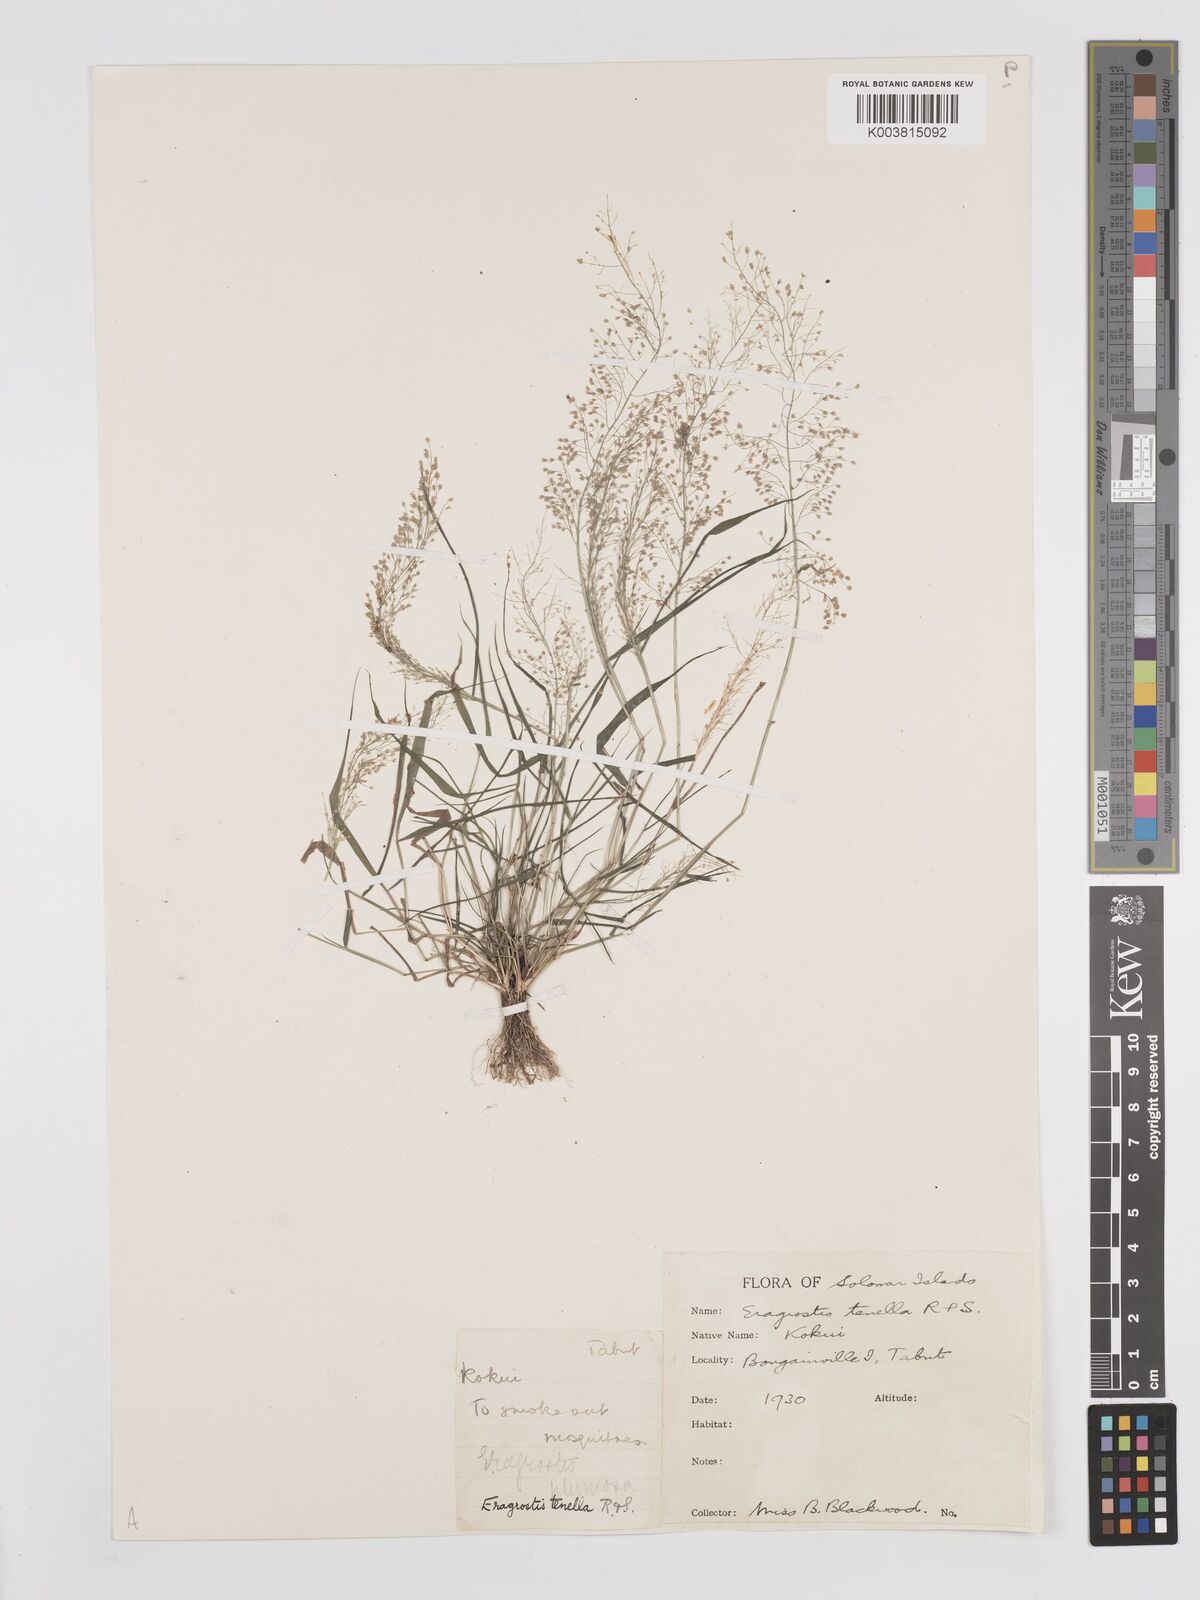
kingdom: Plantae
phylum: Tracheophyta
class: Liliopsida
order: Poales
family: Poaceae
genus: Eragrostis
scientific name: Eragrostis tenella
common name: Japanese lovegrass
